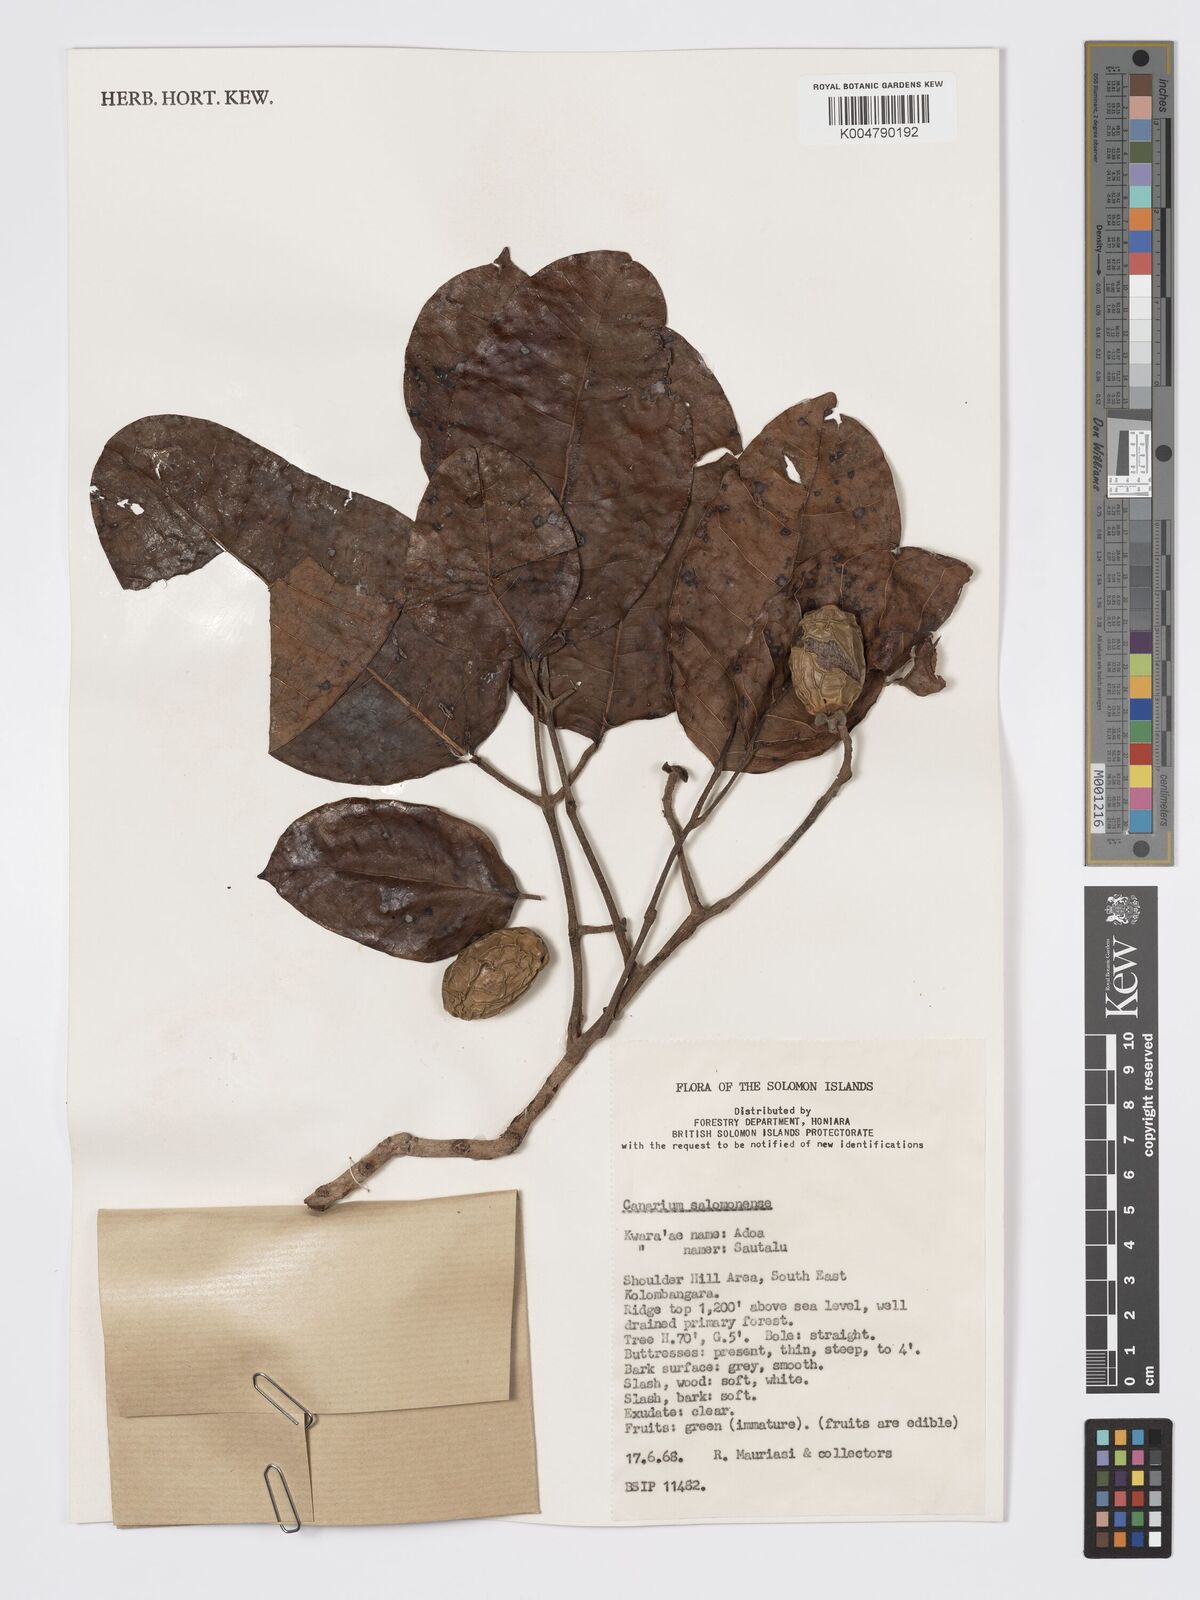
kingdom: Plantae
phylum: Tracheophyta
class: Magnoliopsida
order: Sapindales
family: Burseraceae
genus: Canarium
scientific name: Canarium salomonense
